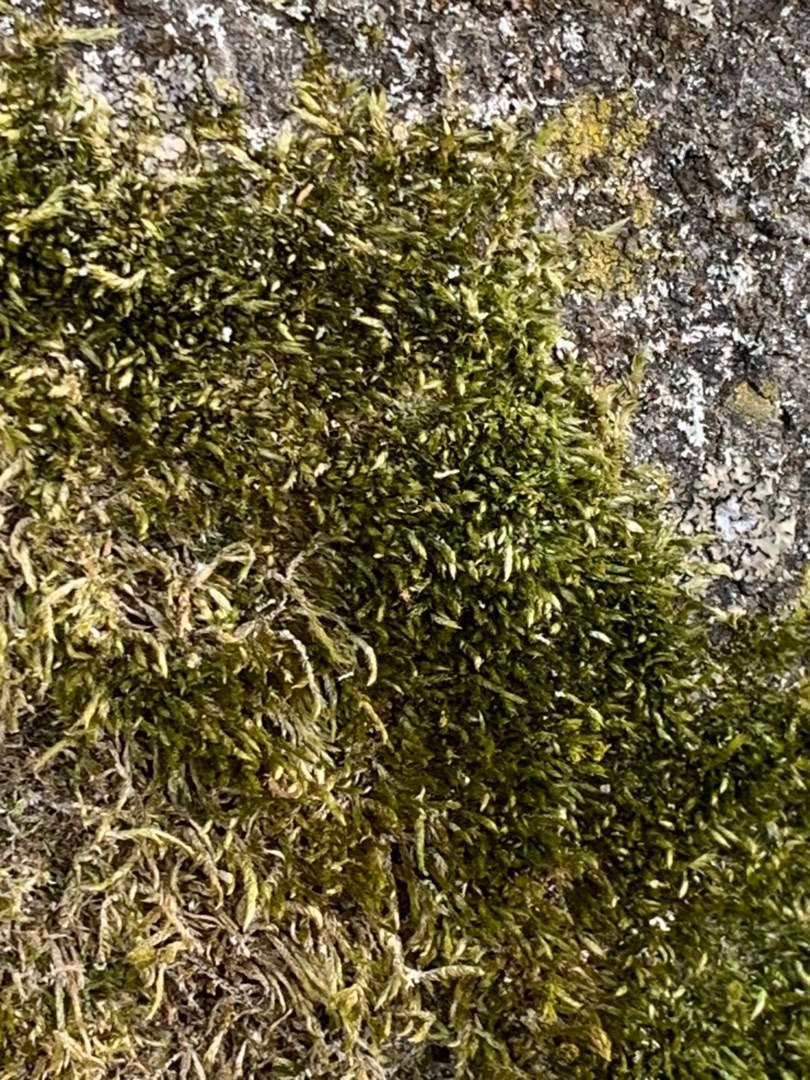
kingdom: Plantae
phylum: Bryophyta
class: Bryopsida
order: Hypnales
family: Hypnaceae
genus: Hypnum
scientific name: Hypnum
